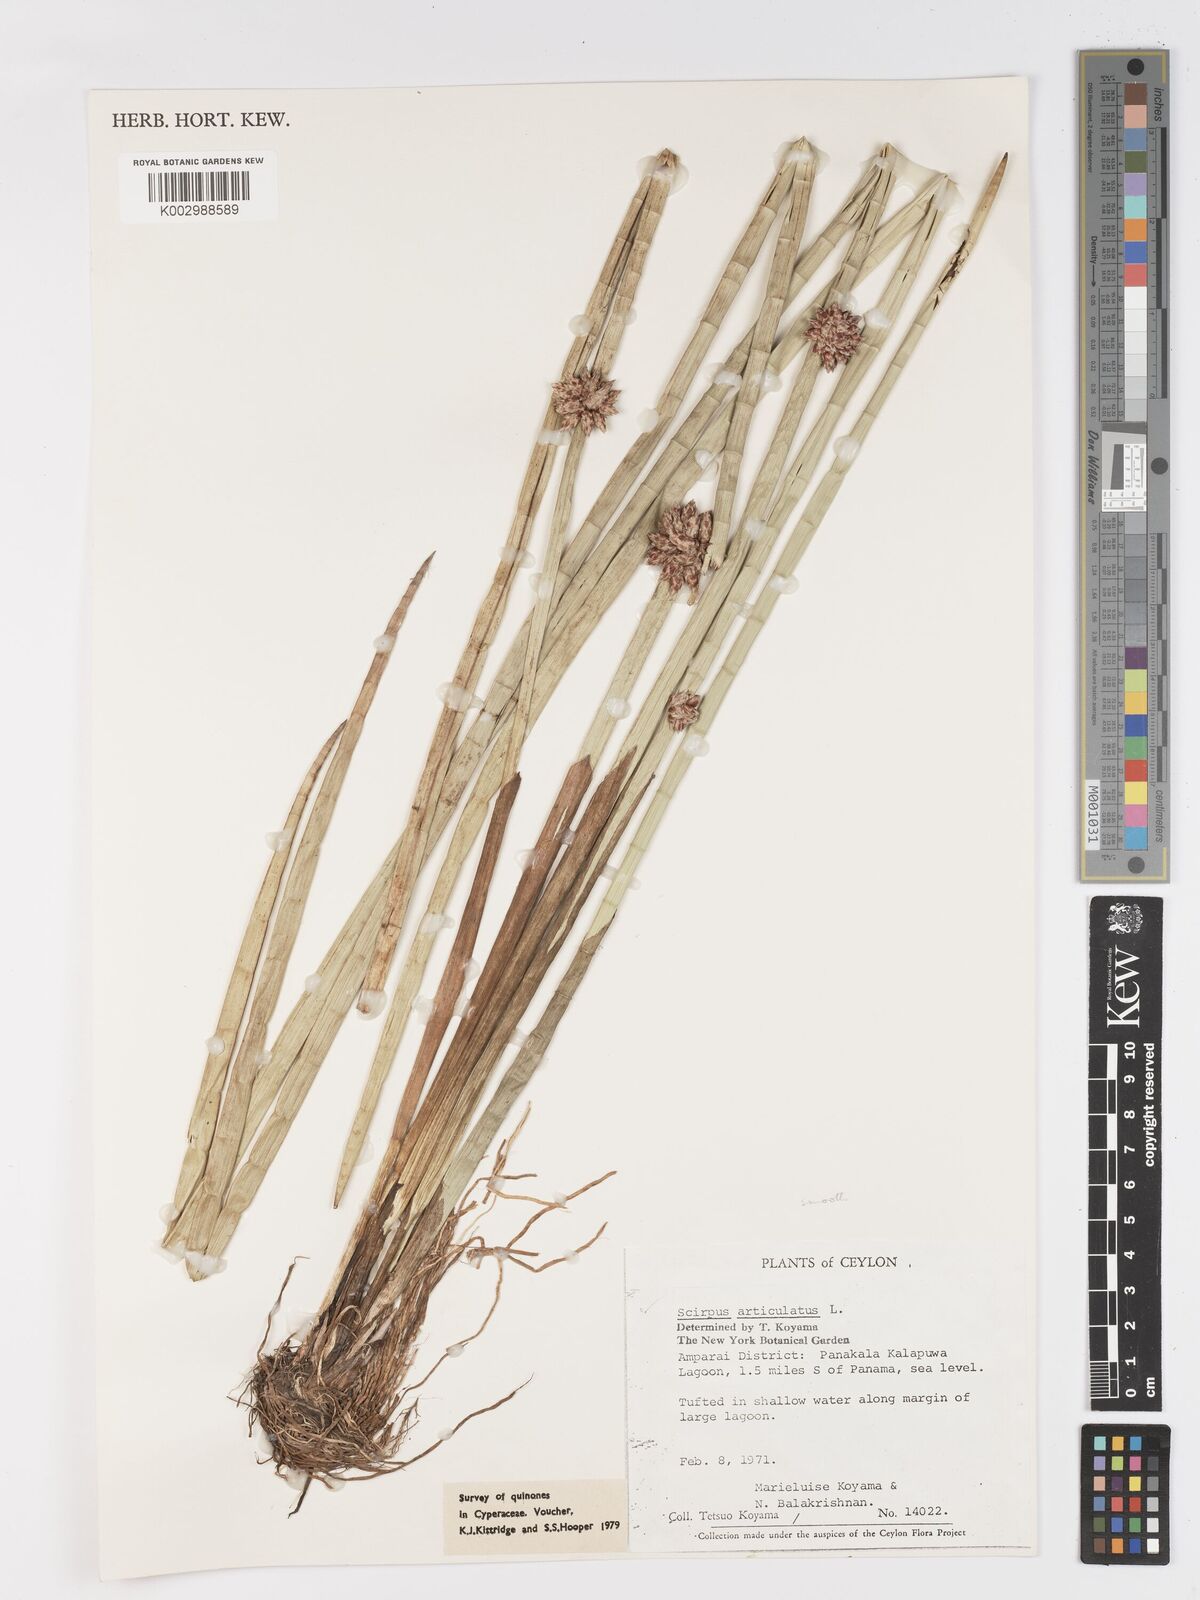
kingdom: Plantae
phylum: Tracheophyta
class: Liliopsida
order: Poales
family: Cyperaceae
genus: Schoenoplectiella
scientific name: Schoenoplectiella articulata
